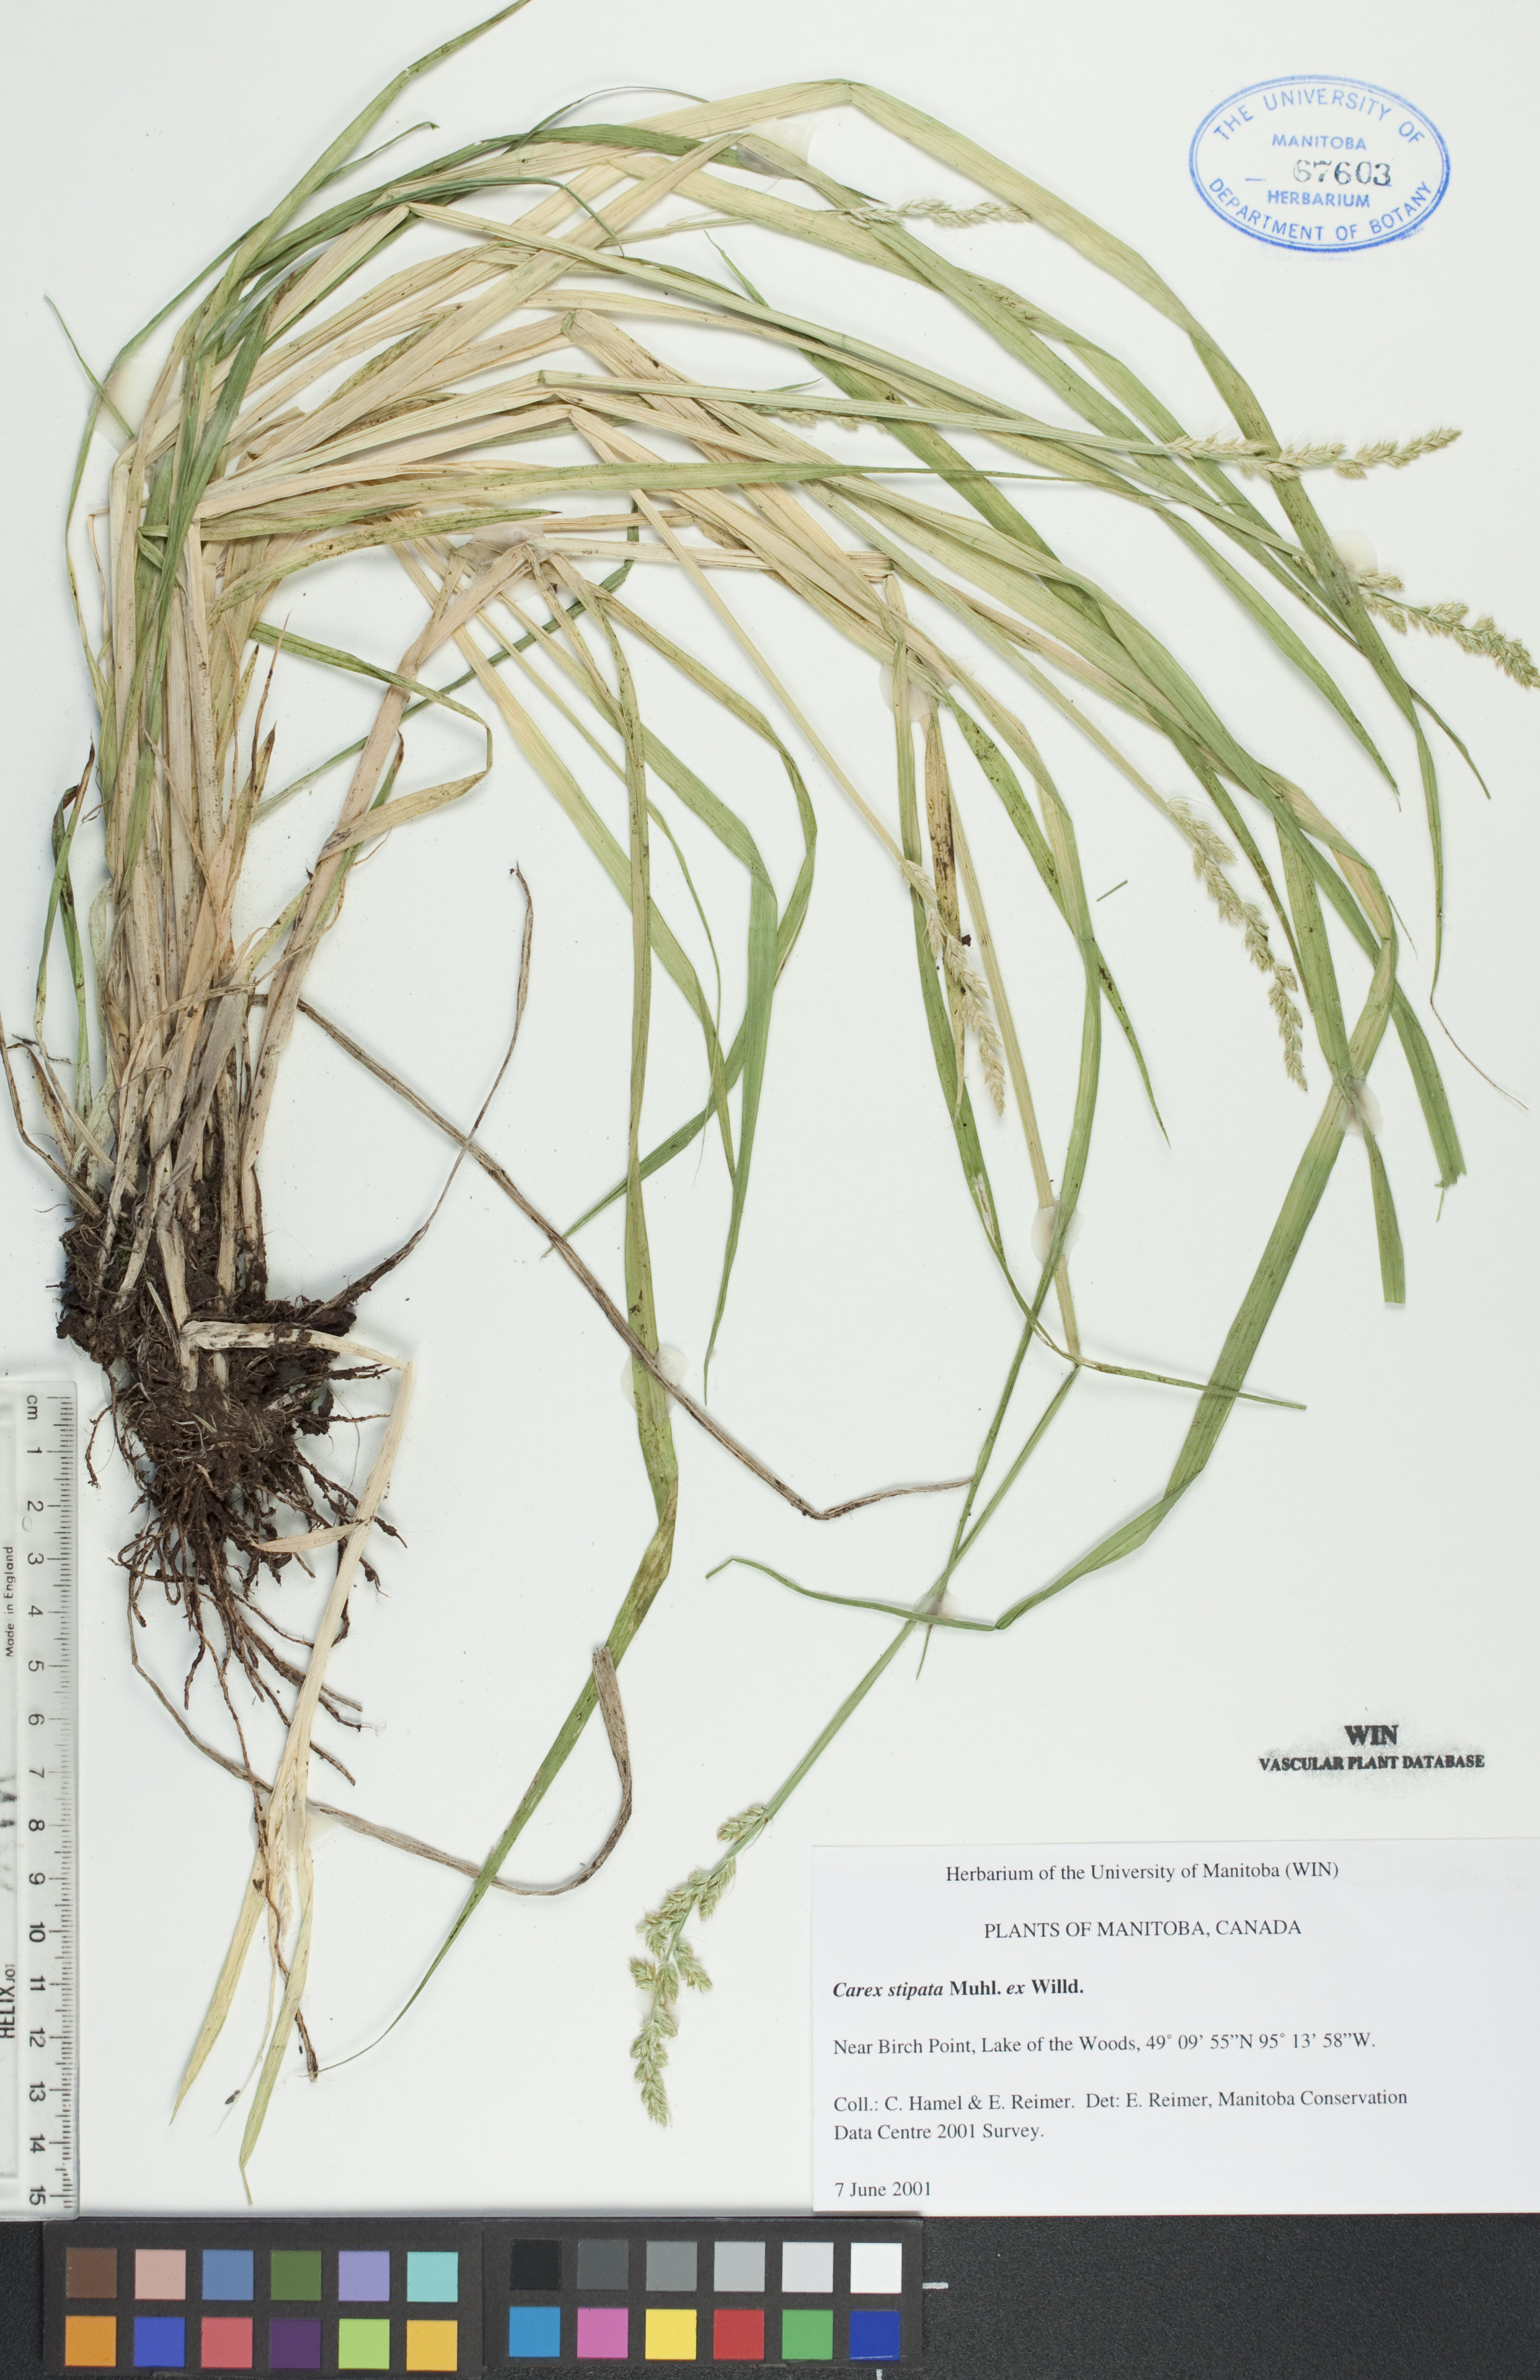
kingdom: Plantae
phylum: Tracheophyta
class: Liliopsida
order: Poales
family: Cyperaceae
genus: Carex
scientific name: Carex stipata
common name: Awl-fruited sedge
